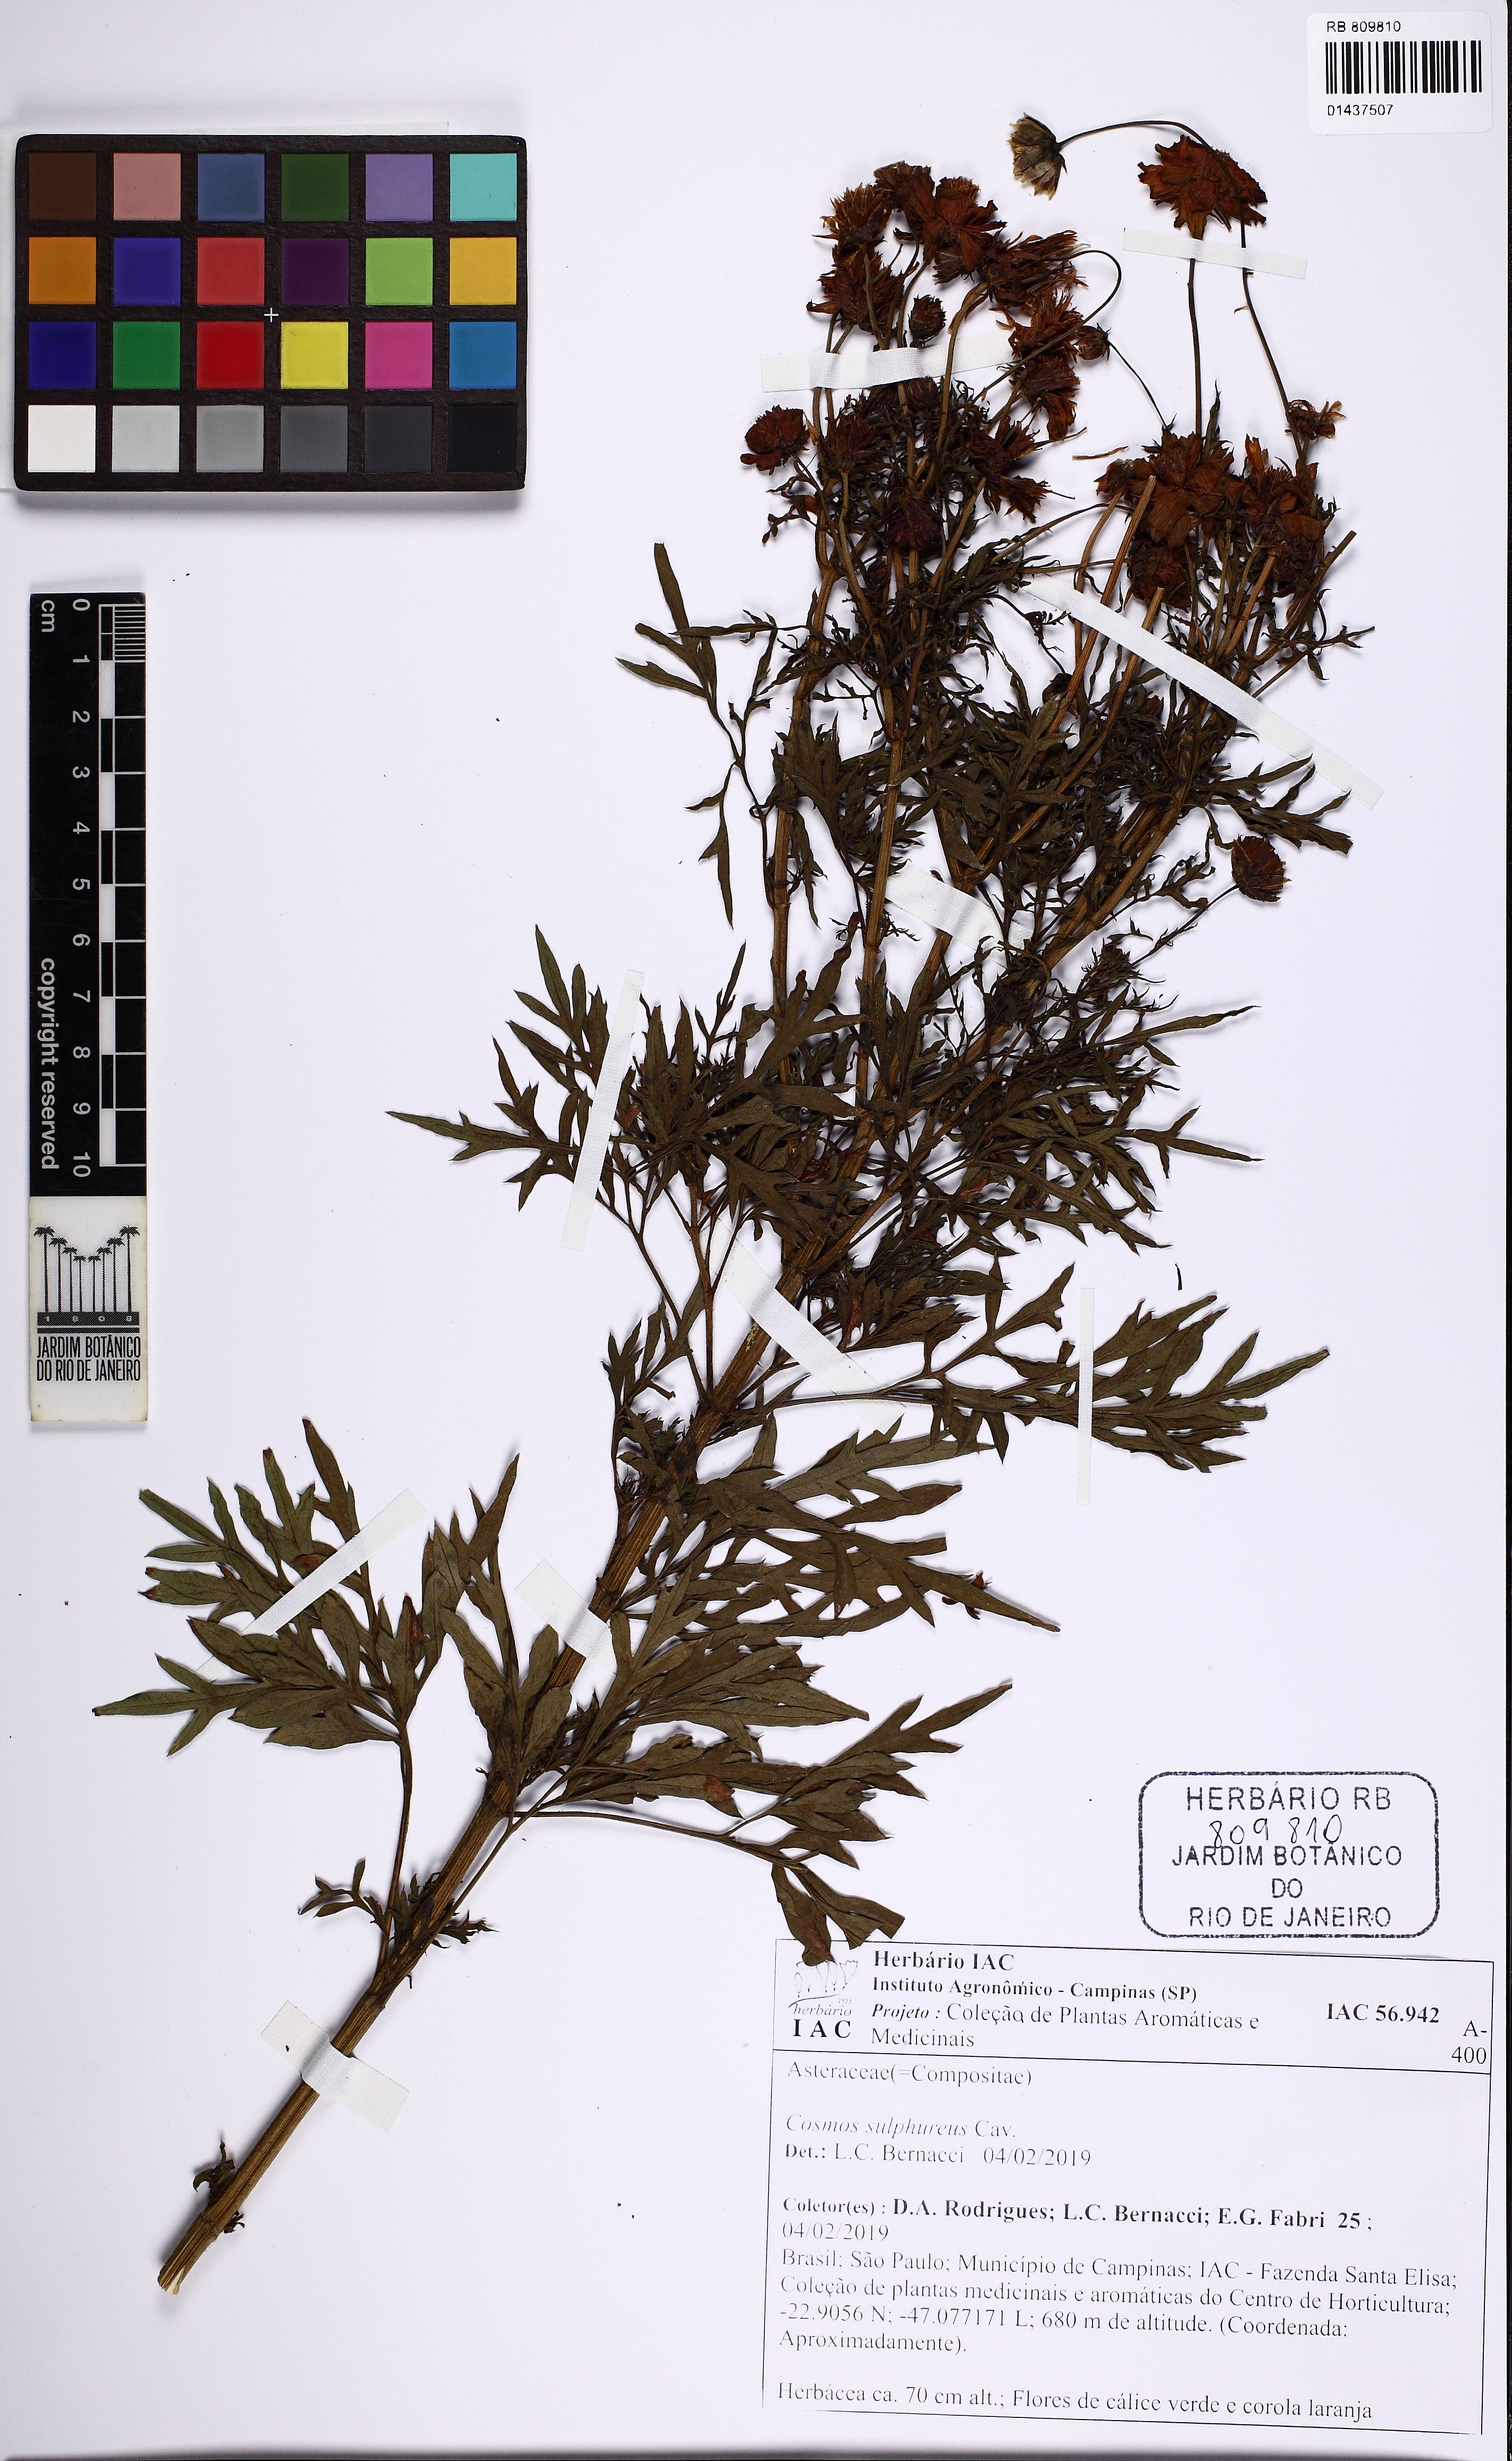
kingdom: Plantae
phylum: Tracheophyta
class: Magnoliopsida
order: Asterales
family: Asteraceae
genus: Cosmos
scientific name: Cosmos sulphureus
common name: Sulphur cosmos
